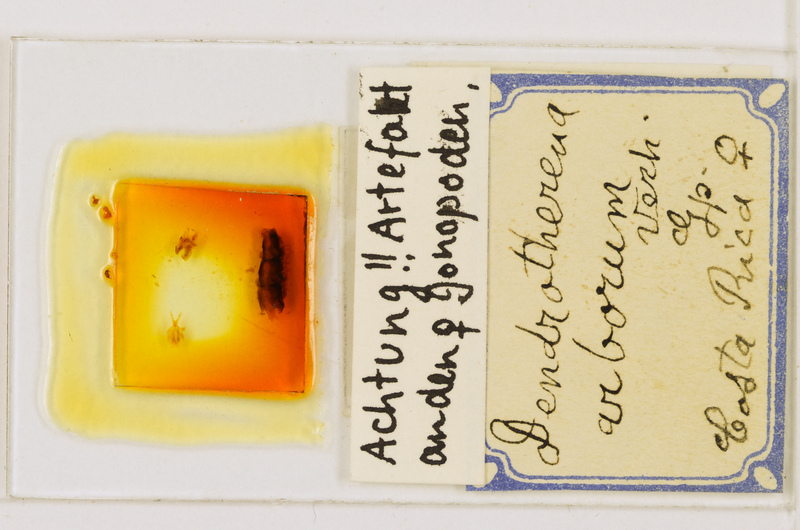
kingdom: Animalia
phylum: Arthropoda
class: Chilopoda
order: Scutigeromorpha
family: Scutigeridae
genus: Scutigera
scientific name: Scutigera linceci
